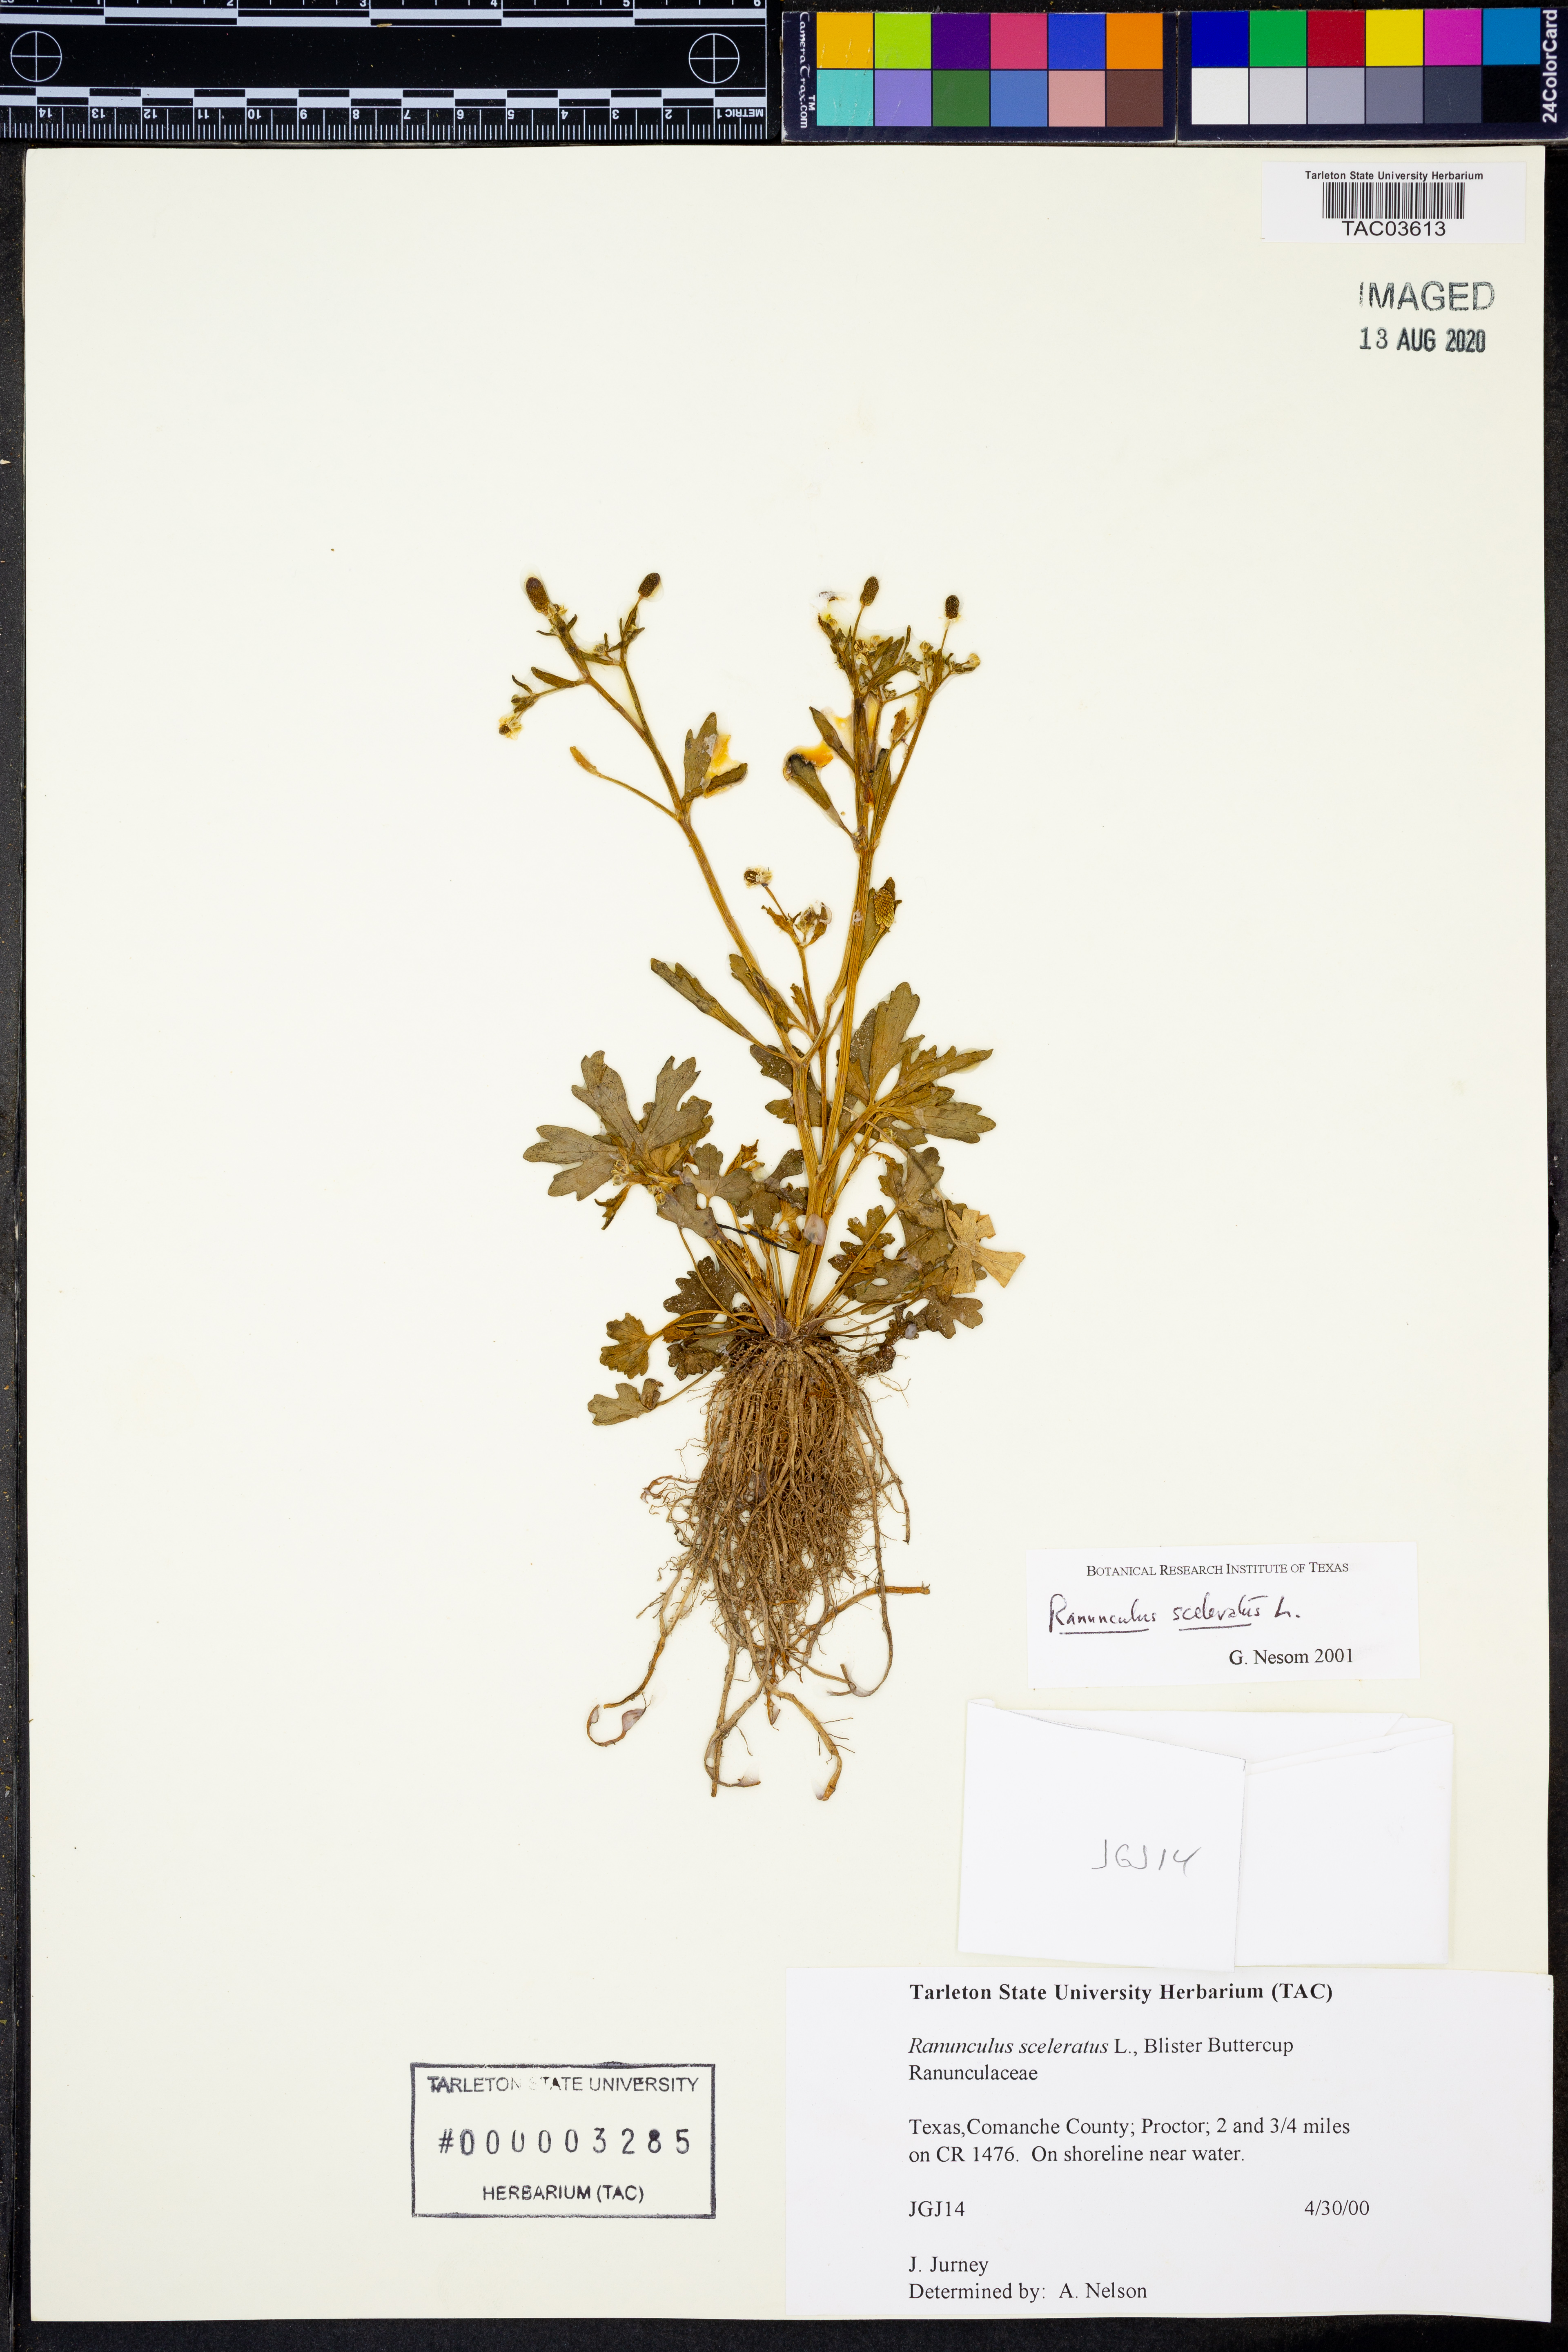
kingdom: Plantae
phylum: Tracheophyta
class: Magnoliopsida
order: Ranunculales
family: Ranunculaceae
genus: Ranunculus
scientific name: Ranunculus sceleratus
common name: Celery-leaved buttercup
